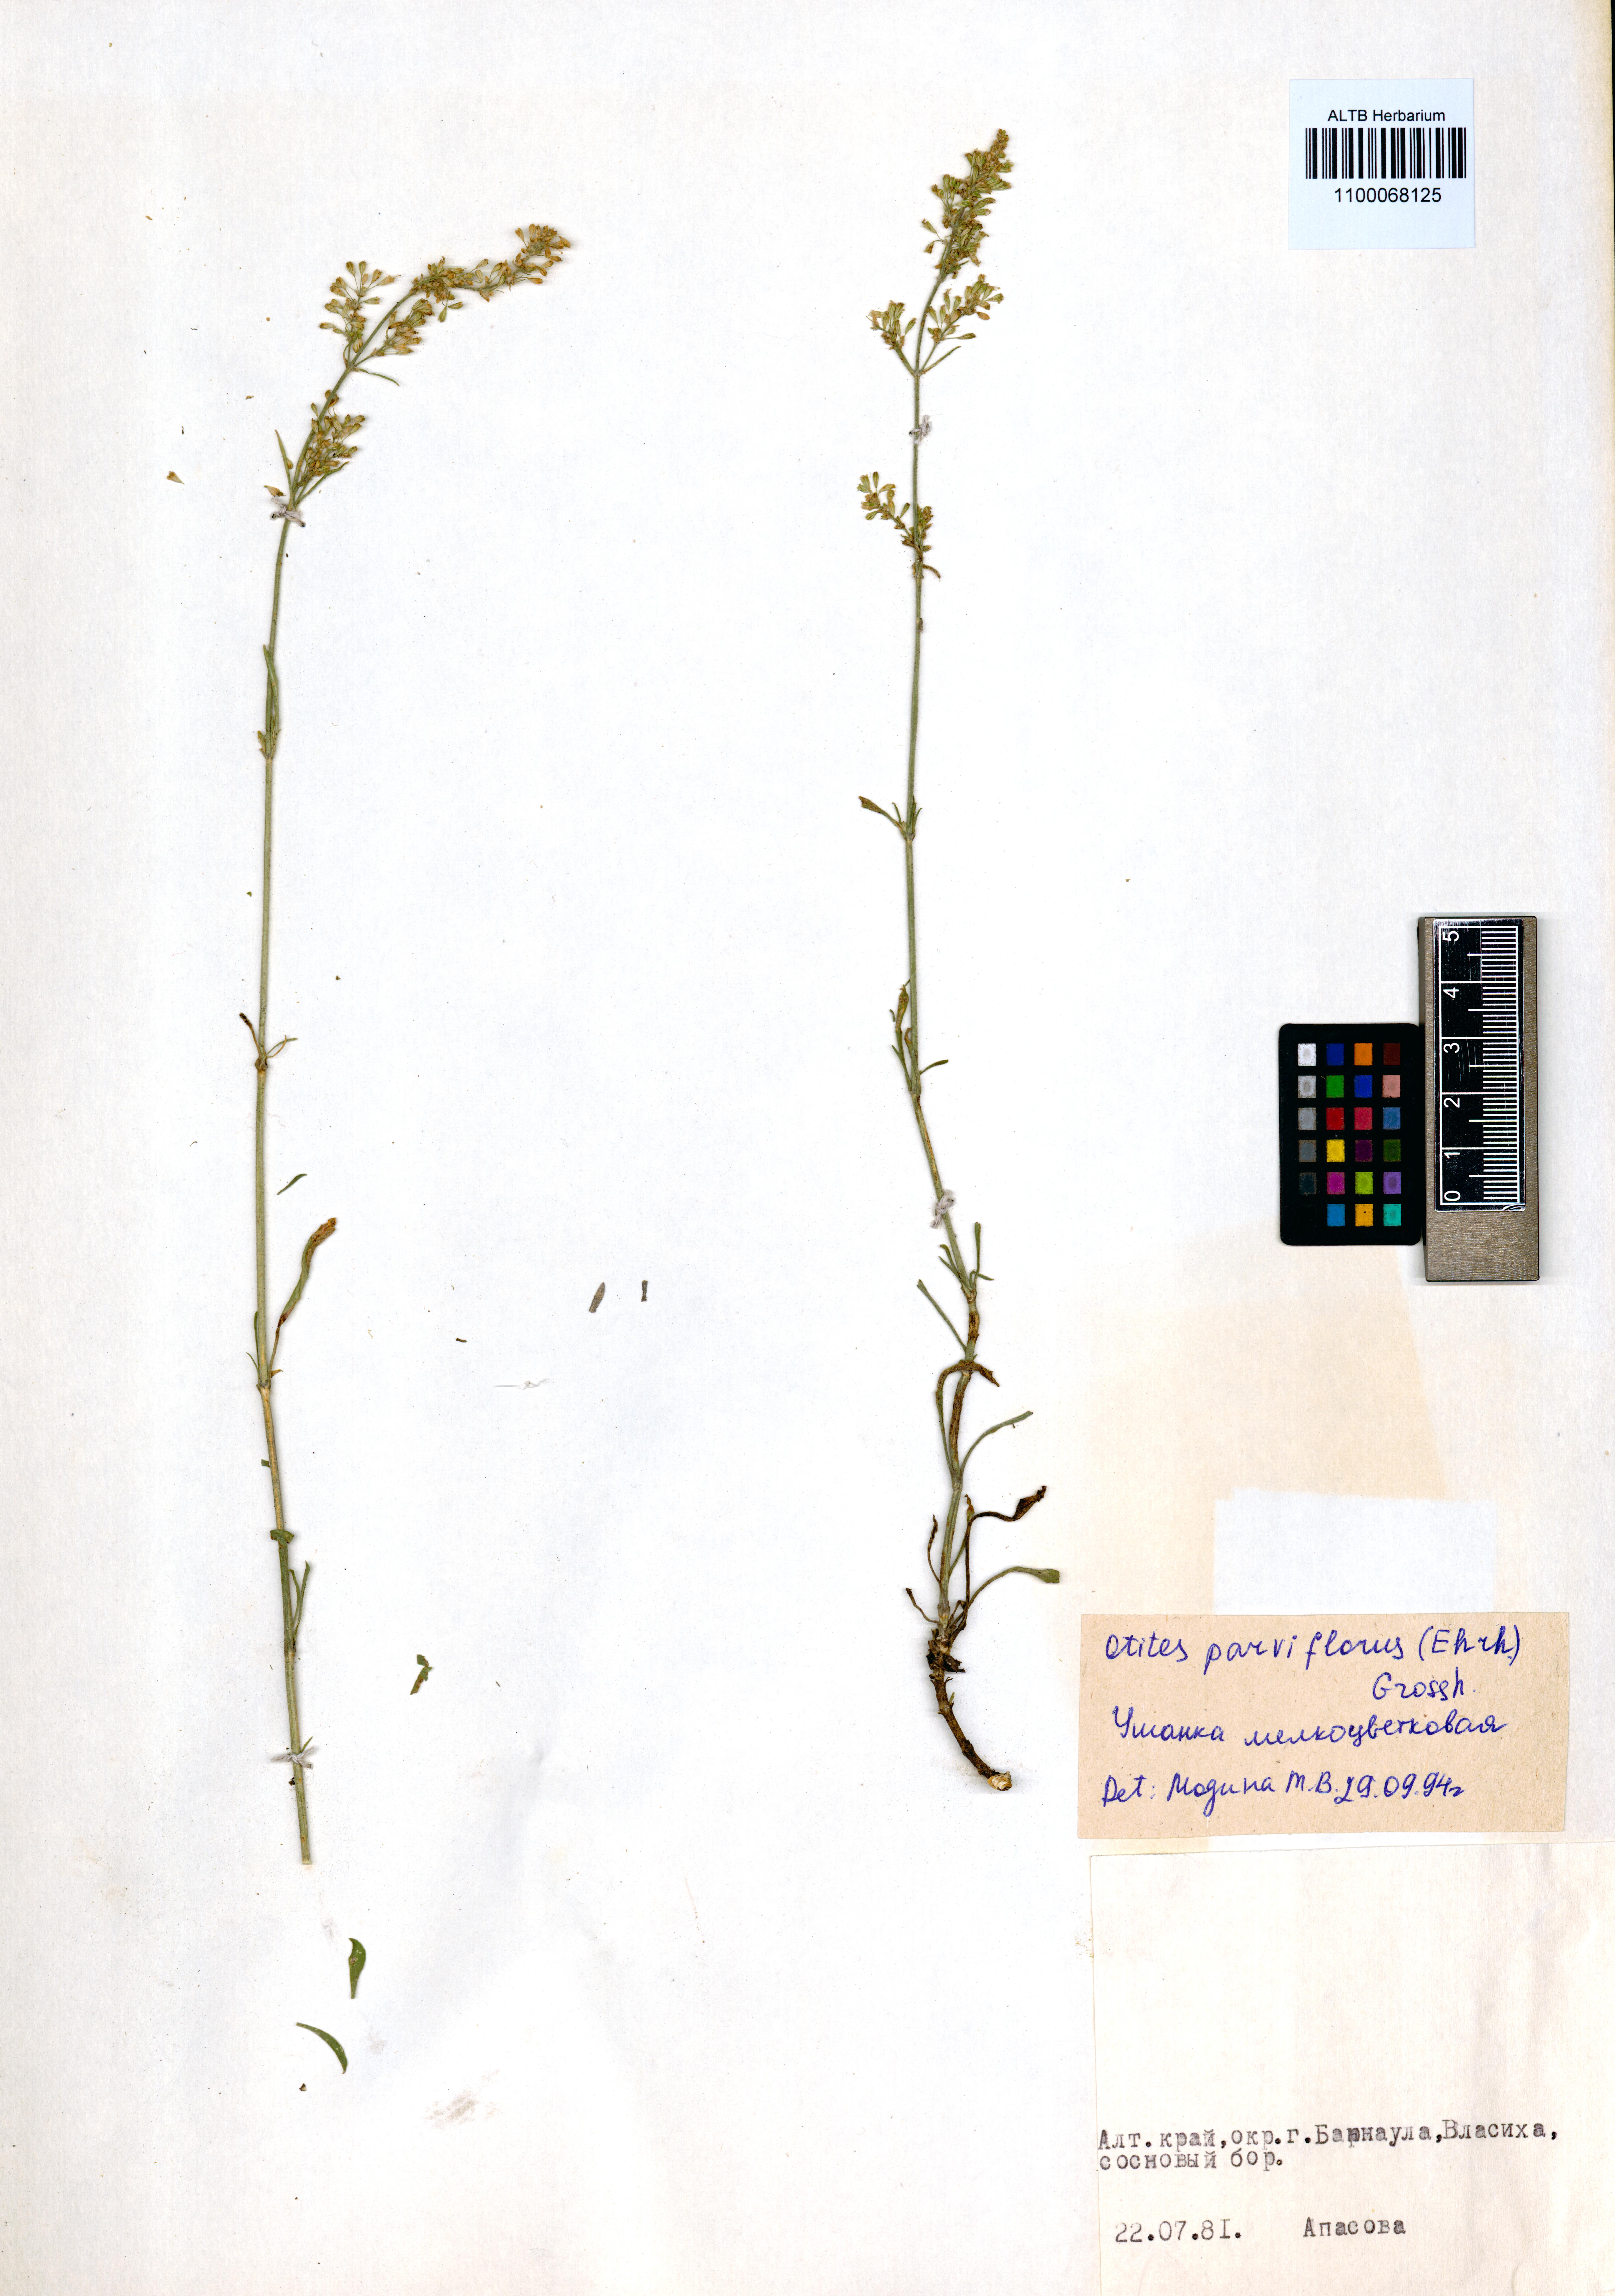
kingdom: Plantae
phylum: Tracheophyta
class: Magnoliopsida
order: Caryophyllales
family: Caryophyllaceae
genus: Silene
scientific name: Silene borysthenica
